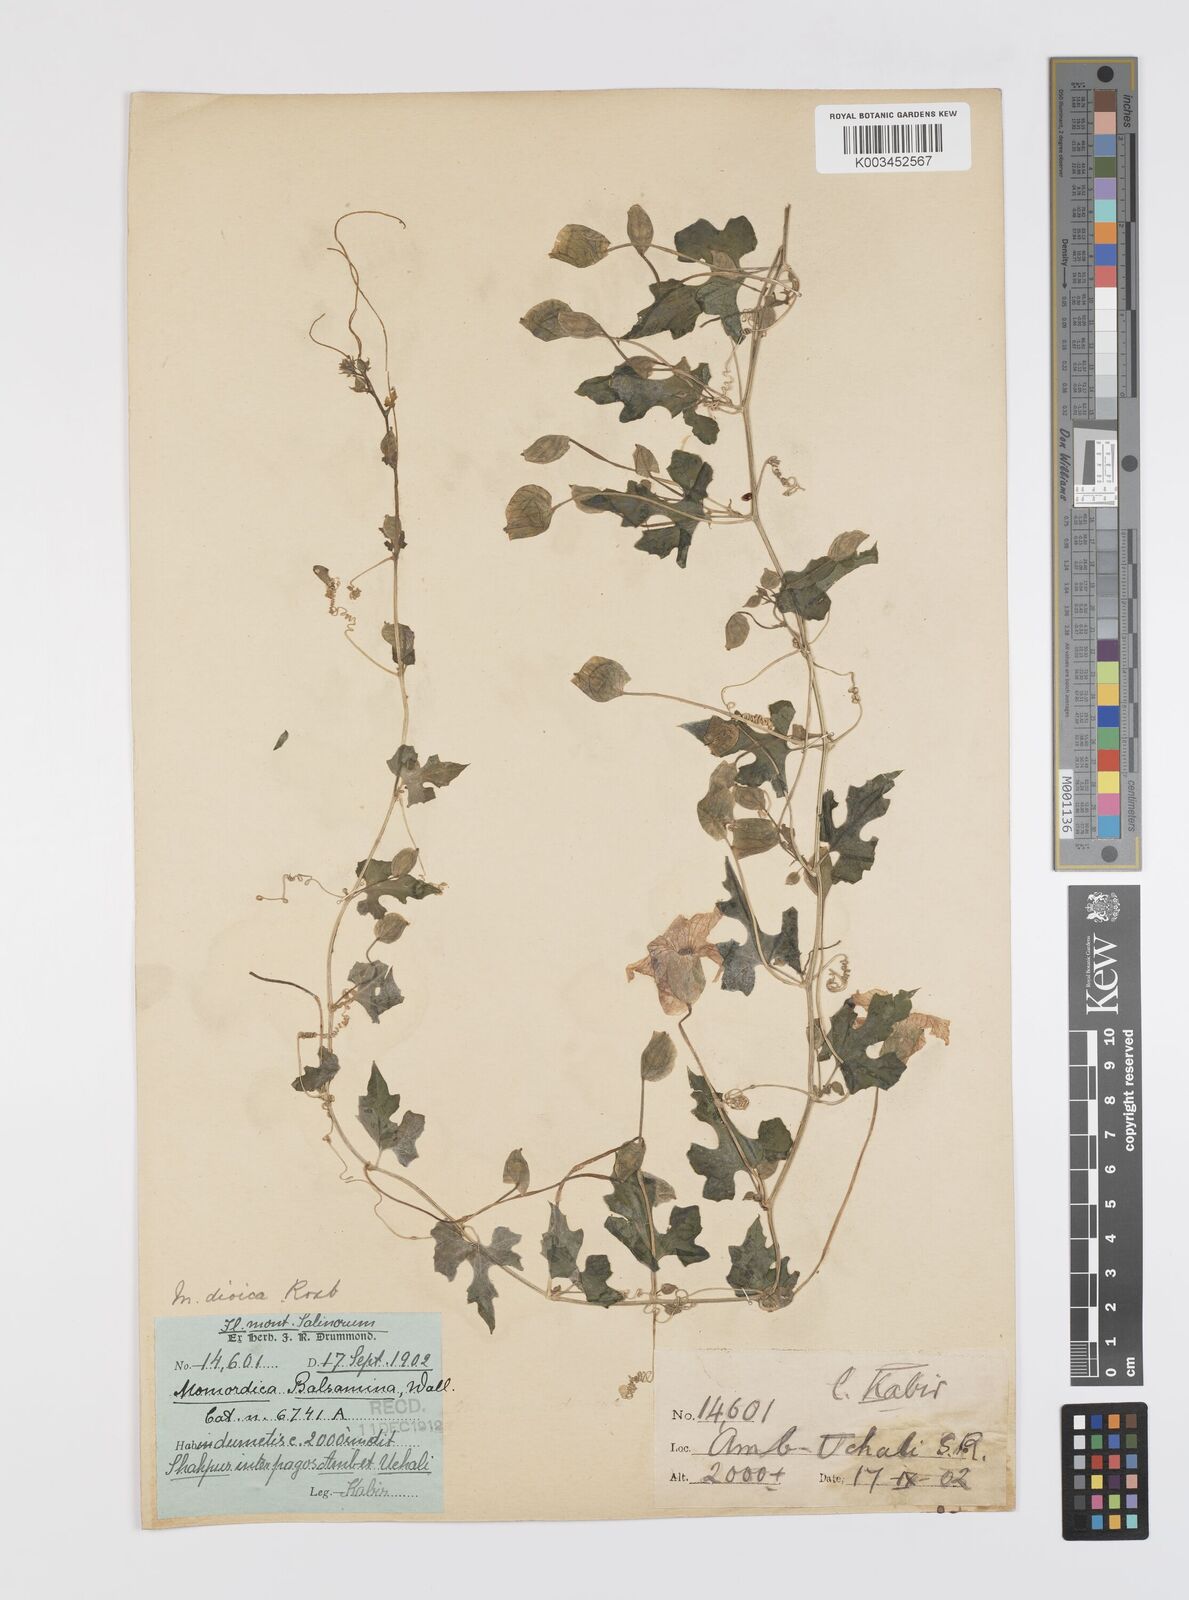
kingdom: Plantae
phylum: Tracheophyta
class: Magnoliopsida
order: Cucurbitales
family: Cucurbitaceae
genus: Momordica
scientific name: Momordica dioica
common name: Spine gourd
